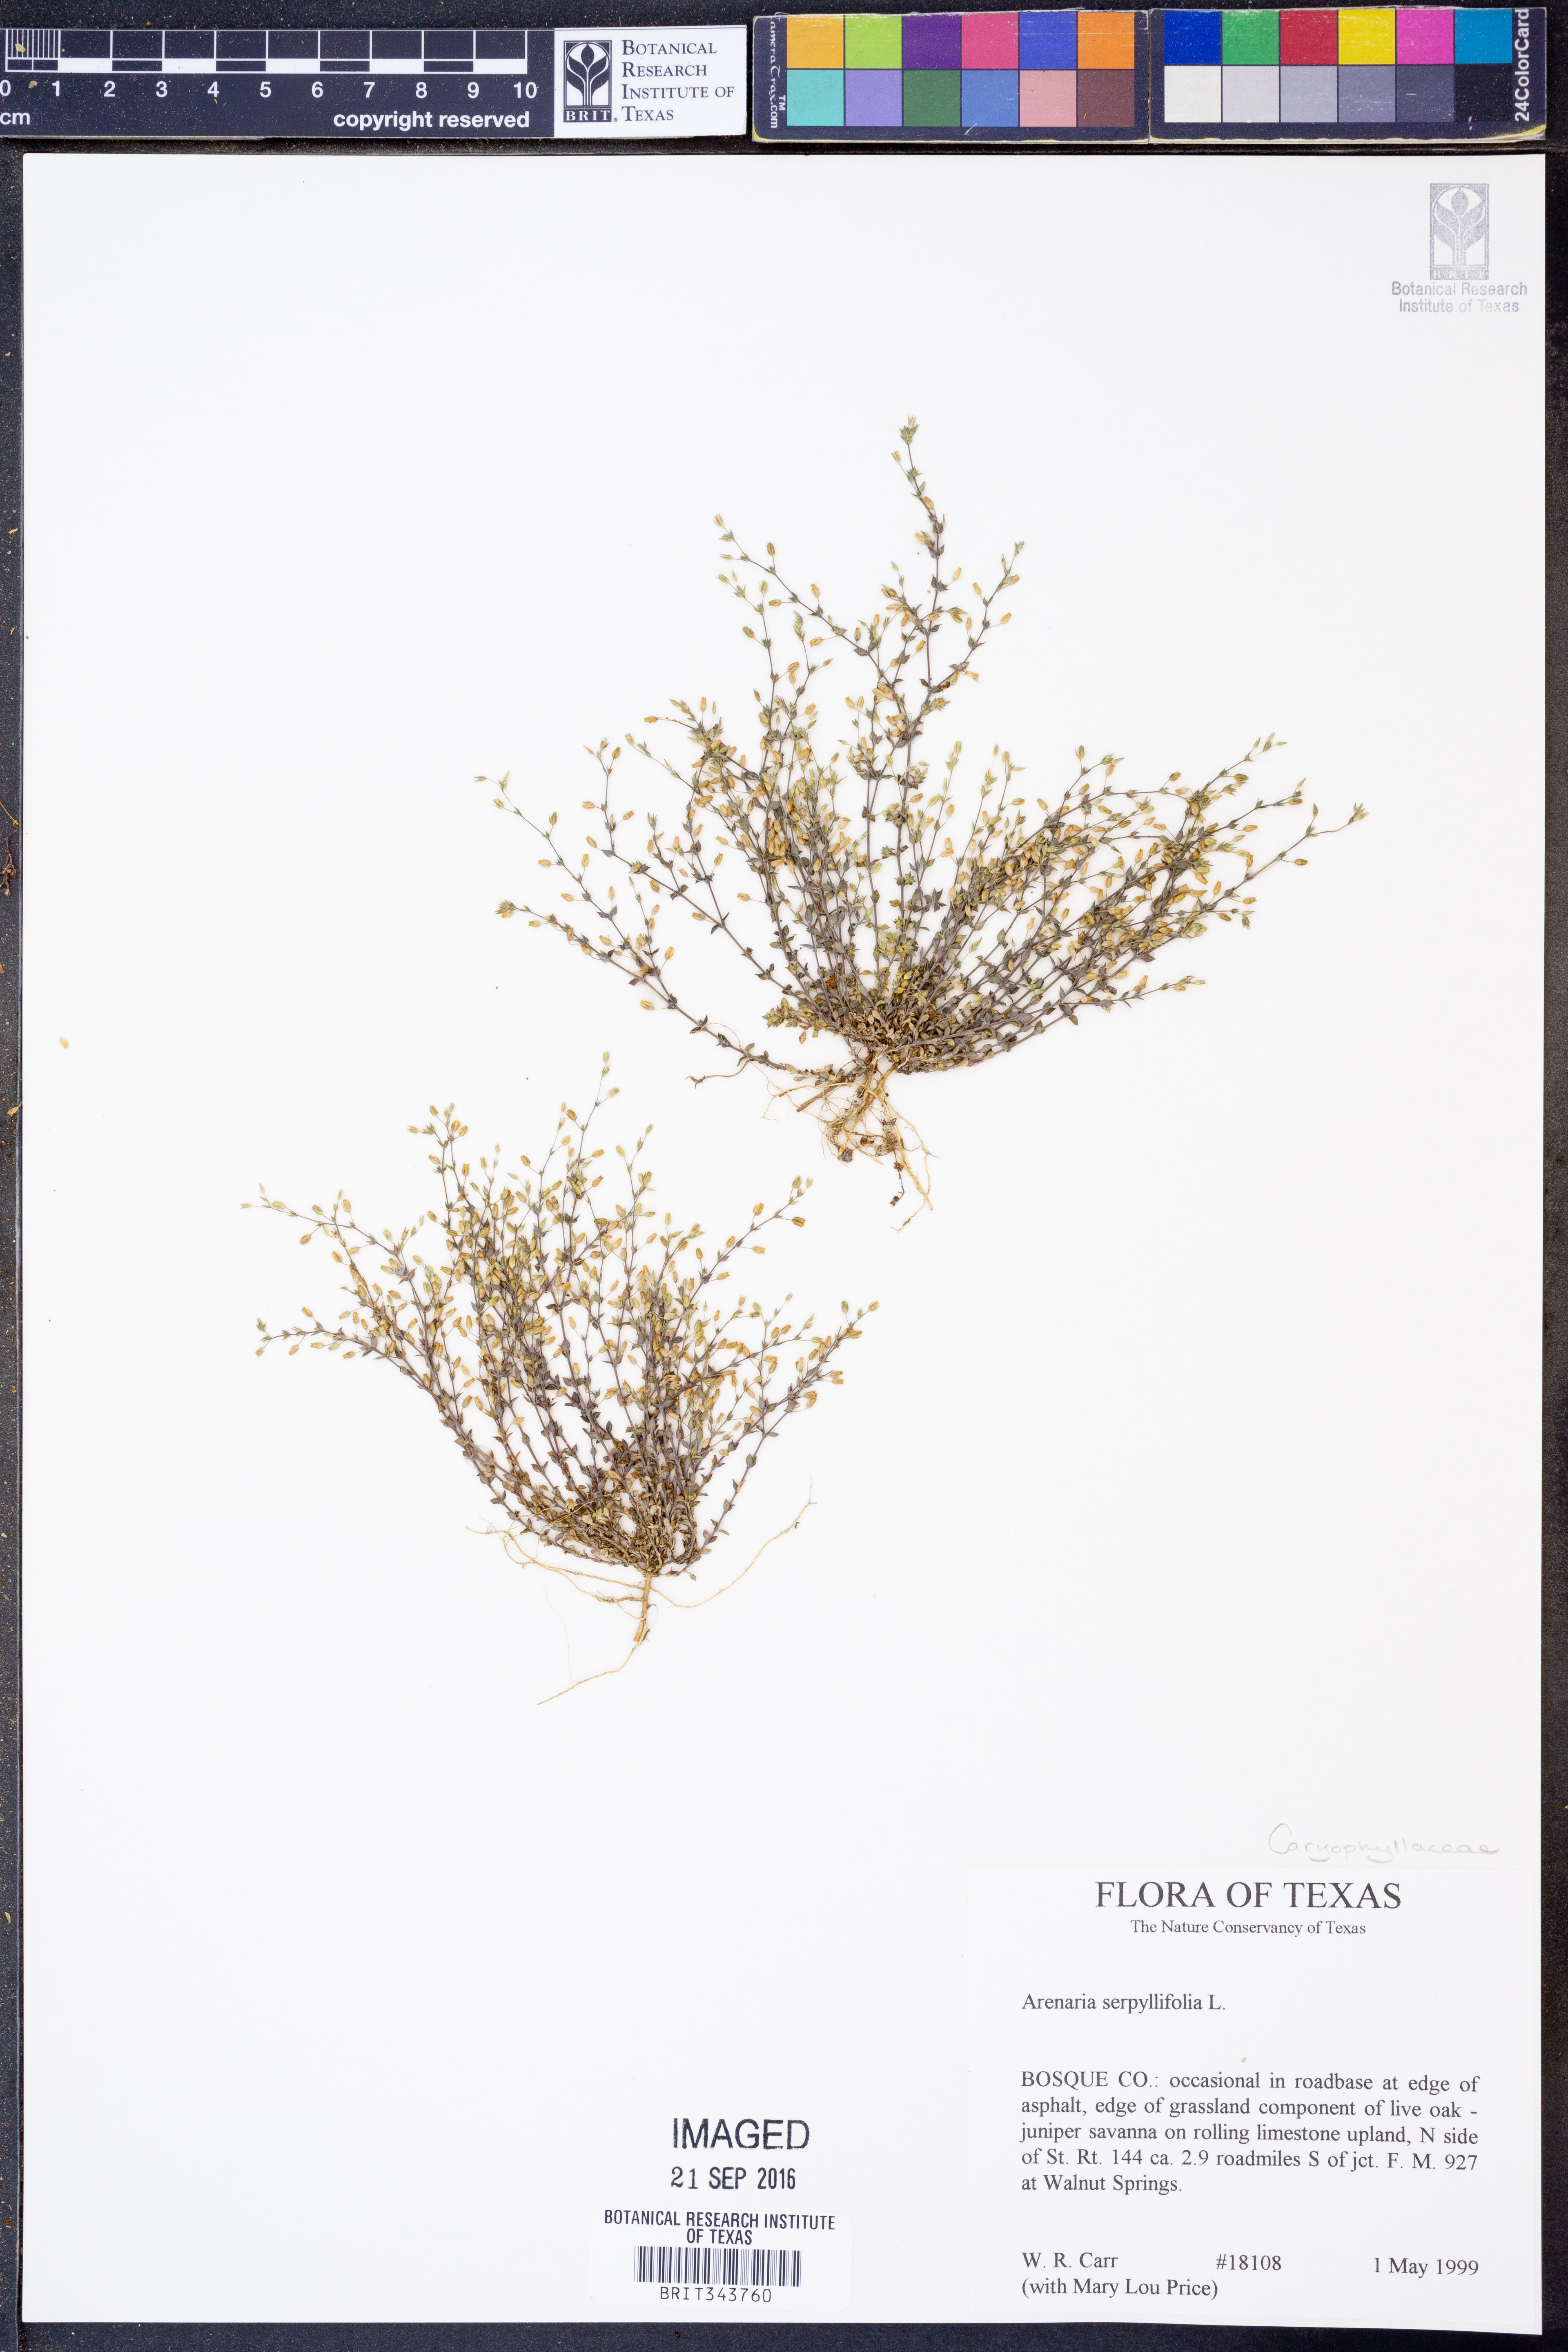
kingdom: Plantae
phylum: Tracheophyta
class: Magnoliopsida
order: Caryophyllales
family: Caryophyllaceae
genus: Arenaria
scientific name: Arenaria serpyllifolia
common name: Thyme-leaved sandwort
